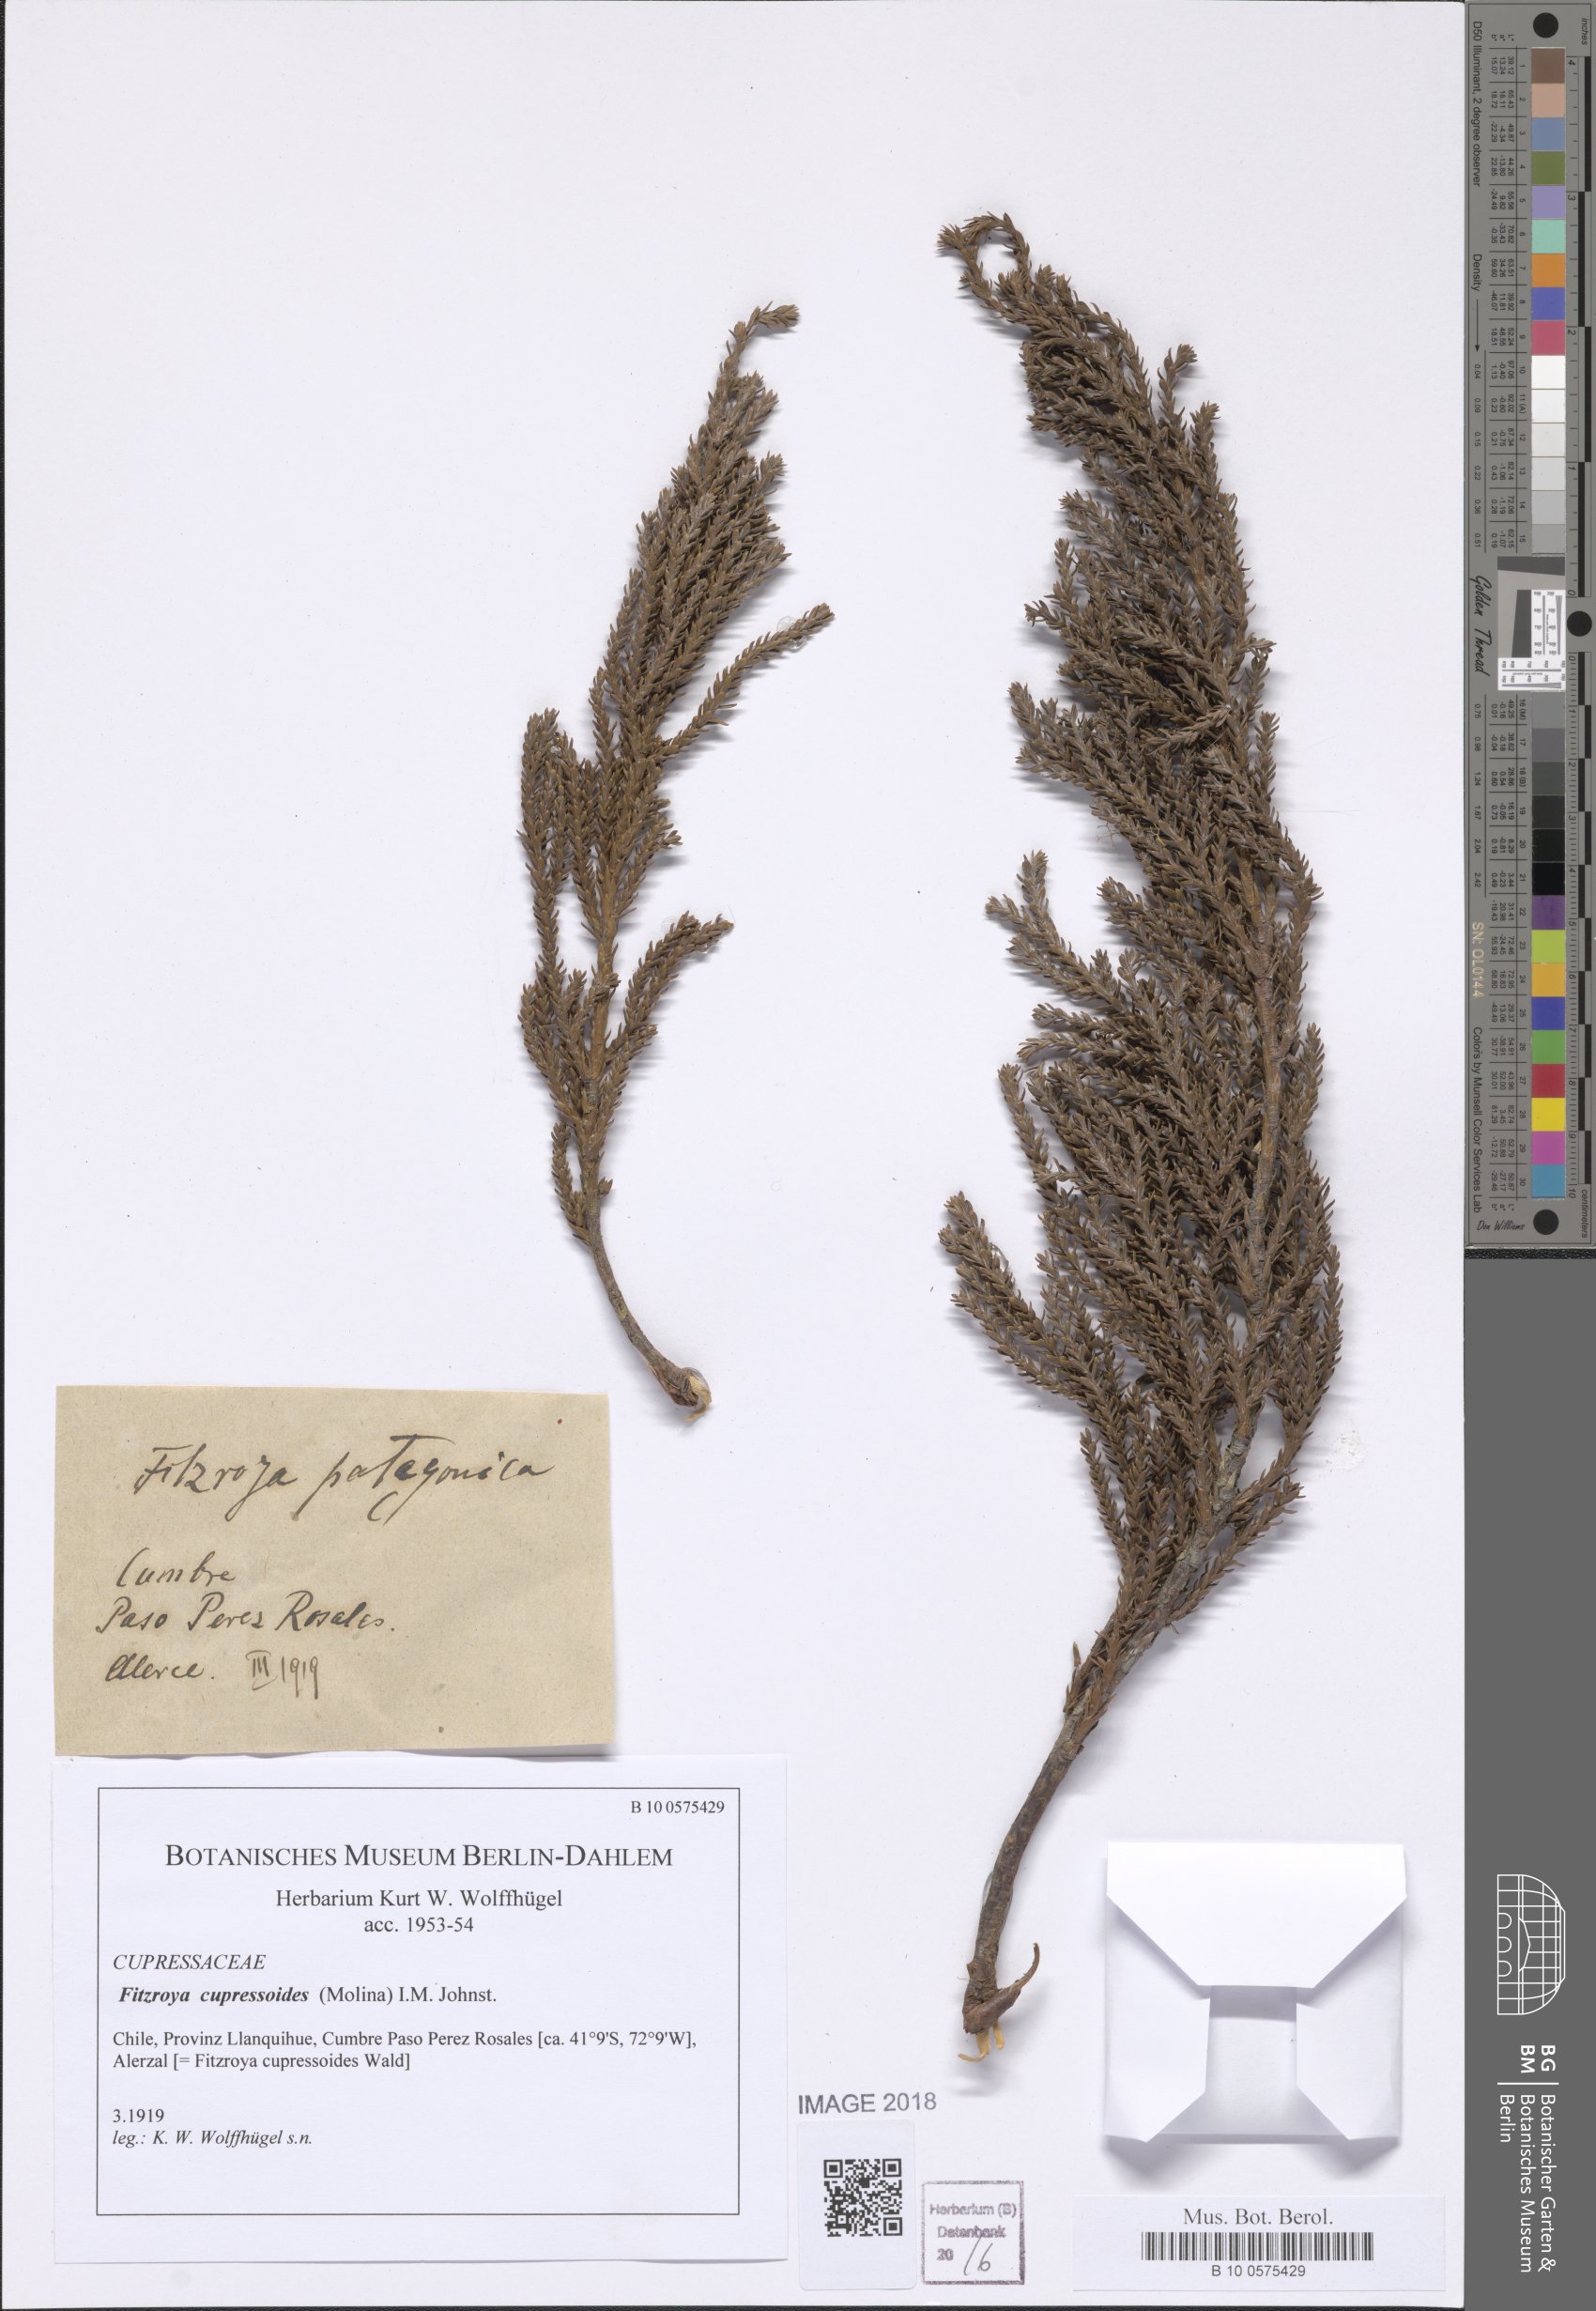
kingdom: Plantae
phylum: Tracheophyta
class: Pinopsida
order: Pinales
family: Cupressaceae
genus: Fitzroya
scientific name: Fitzroya cupressoides
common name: Patagonian cypress
